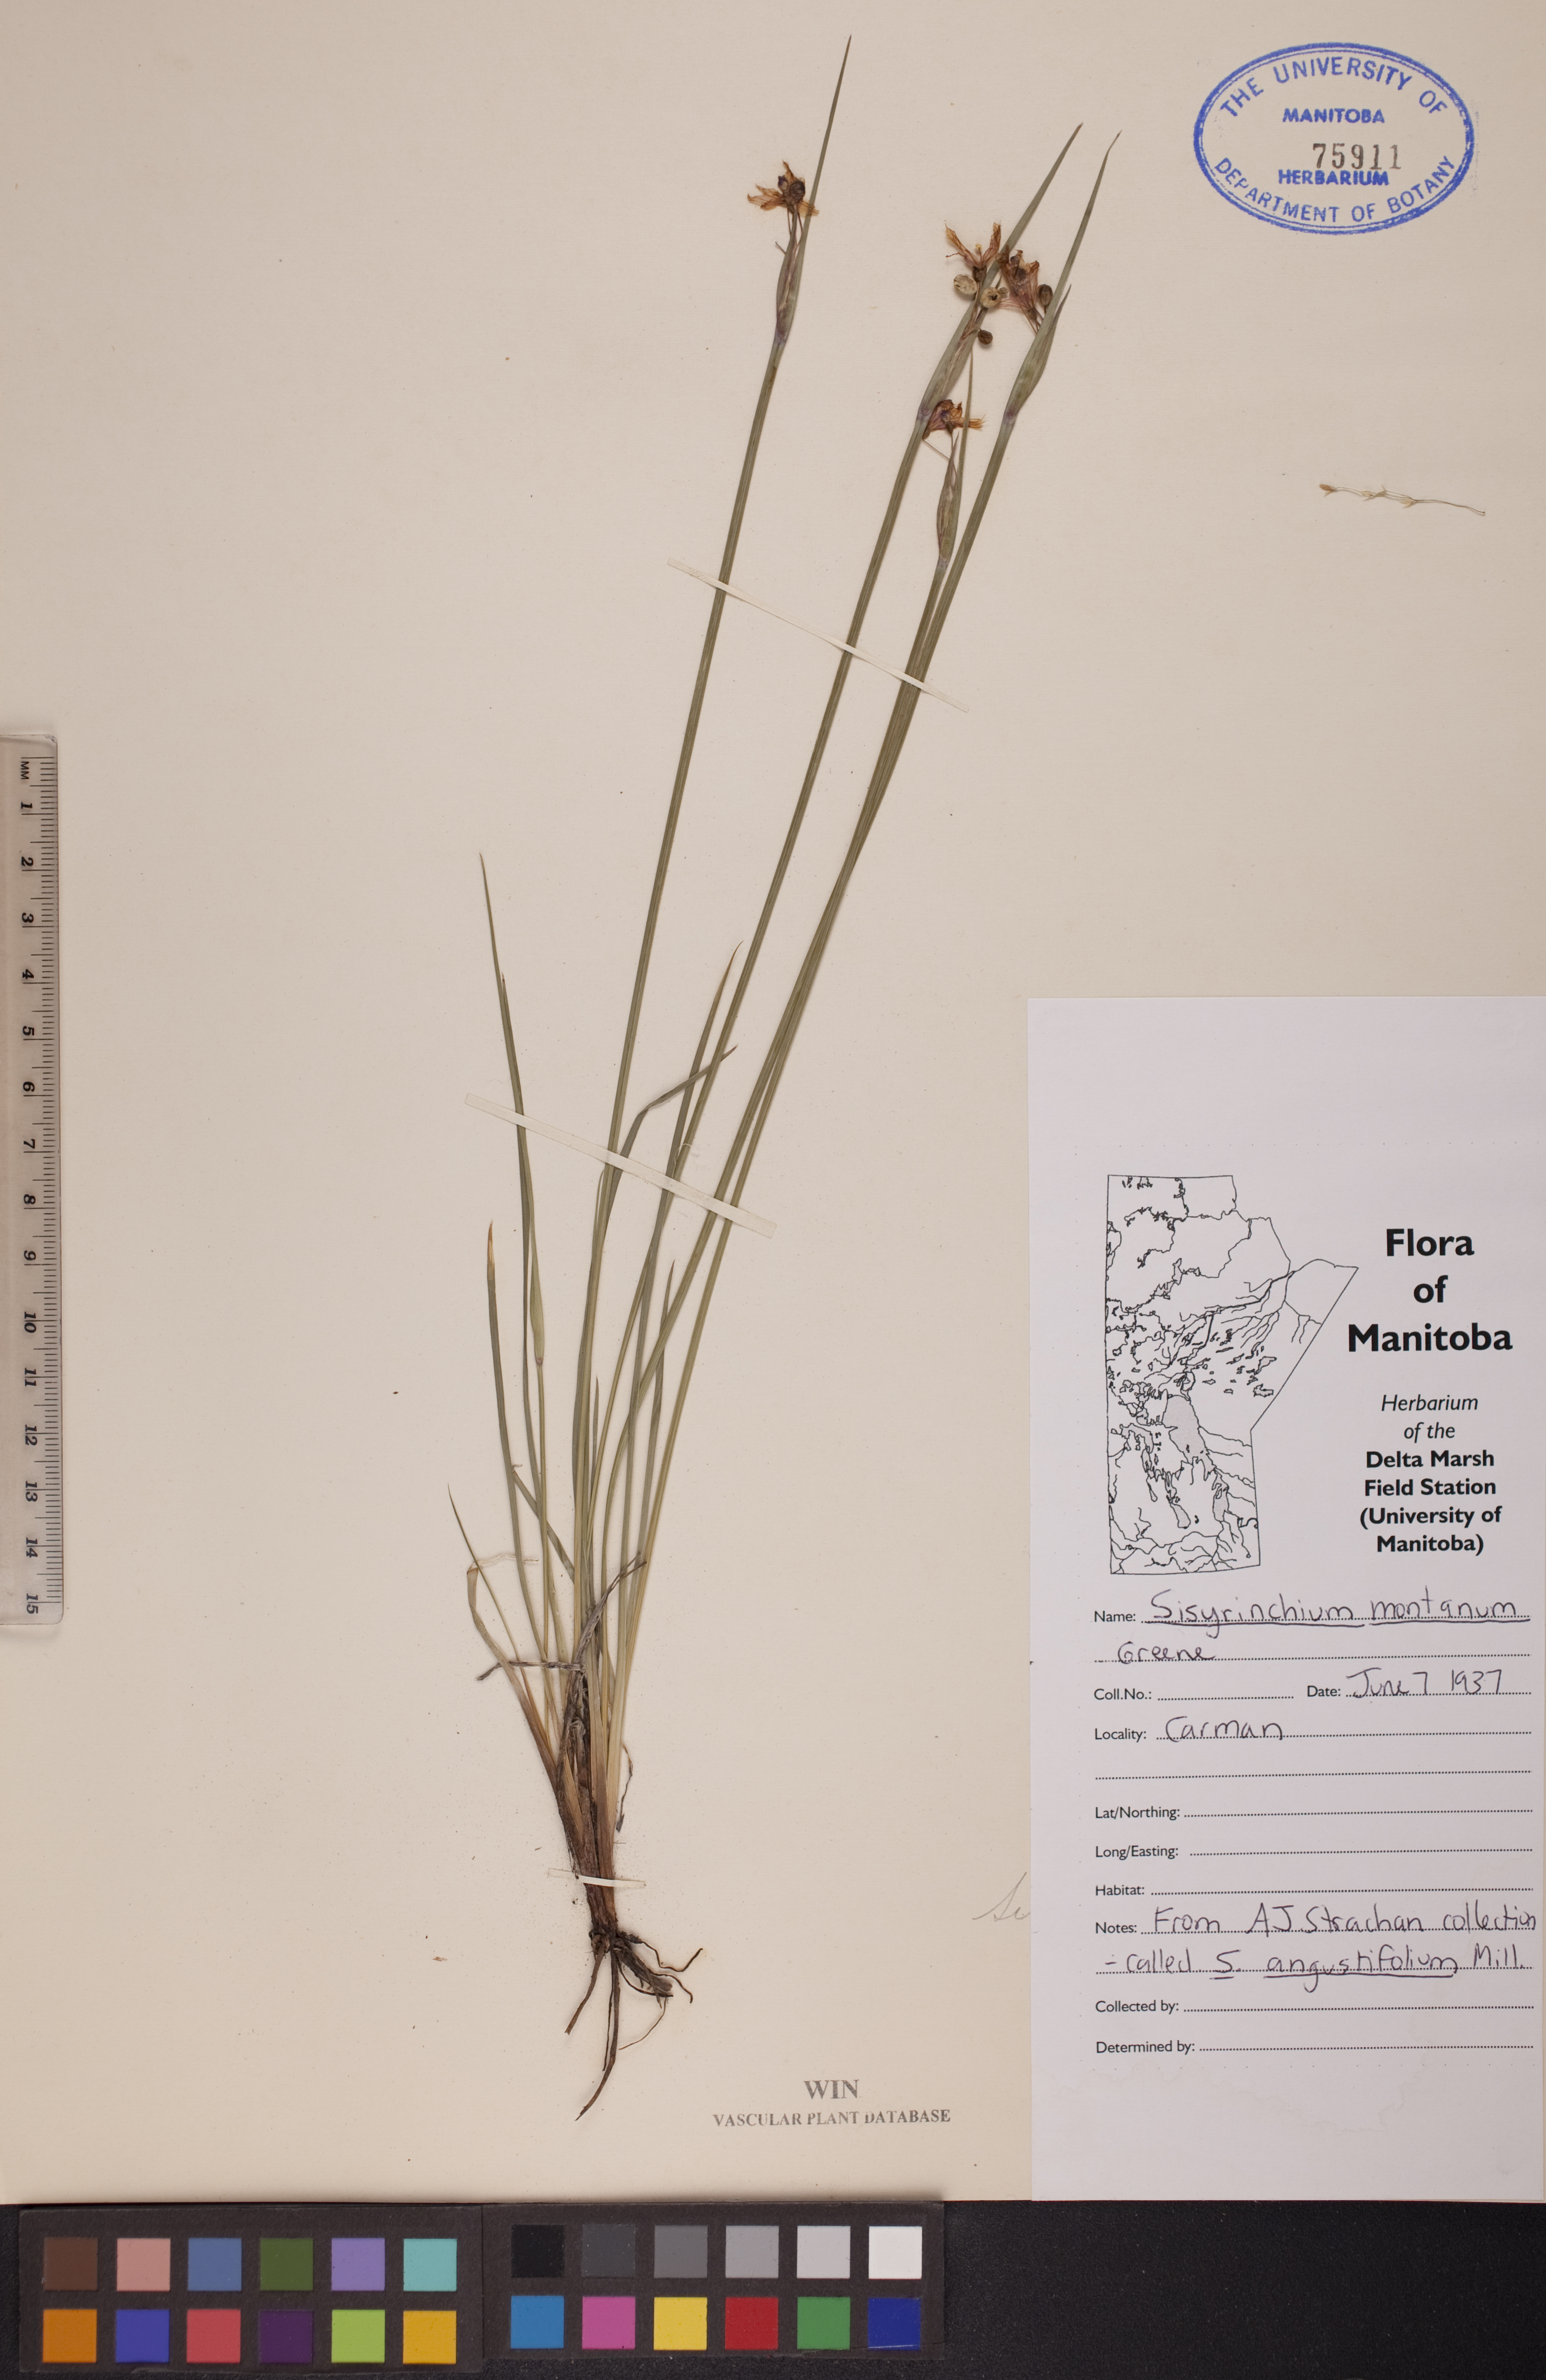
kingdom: Plantae
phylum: Tracheophyta
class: Liliopsida
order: Asparagales
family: Iridaceae
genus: Sisyrinchium
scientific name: Sisyrinchium montanum
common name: American blue-eyed-grass
